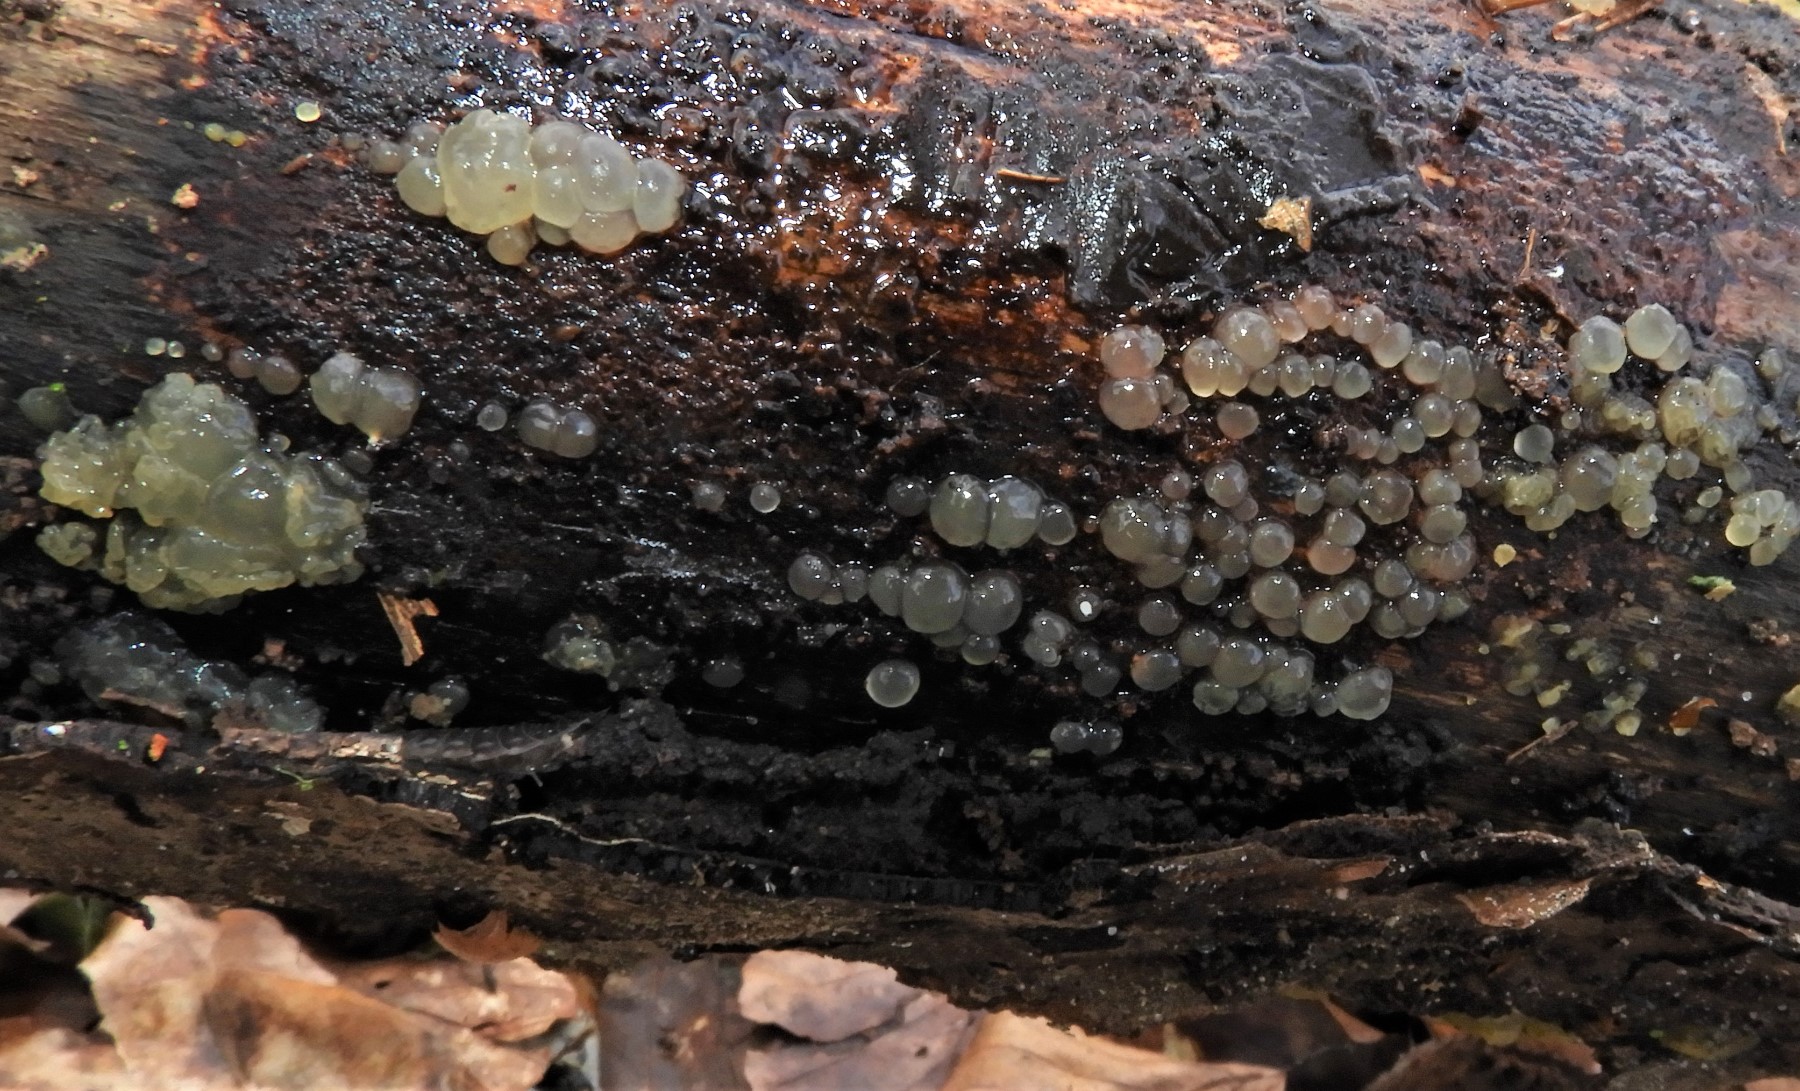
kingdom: Fungi
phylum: Basidiomycota
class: Dacrymycetes
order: Dacrymycetales
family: Dacrymycetaceae
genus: Dacrymyces
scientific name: Dacrymyces
